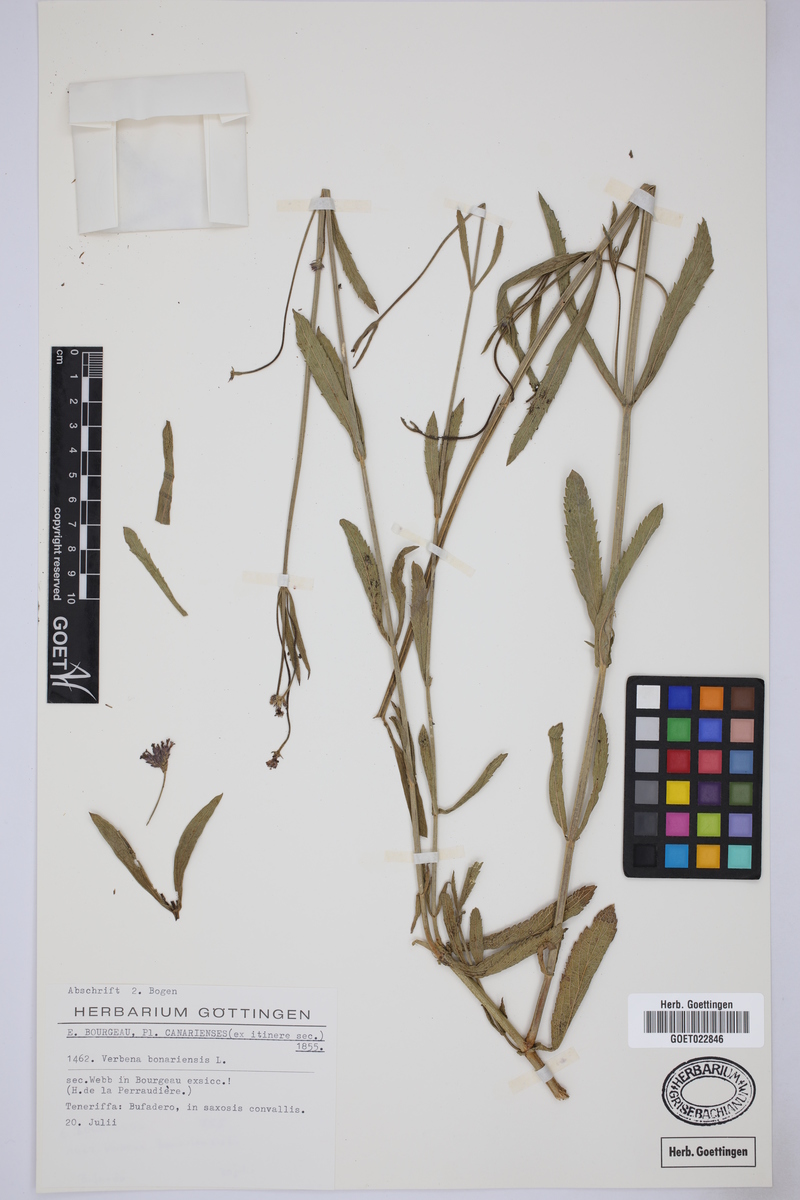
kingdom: Plantae
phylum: Tracheophyta
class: Magnoliopsida
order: Lamiales
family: Verbenaceae
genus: Verbena
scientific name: Verbena bonariensis
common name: Purpletop vervain
